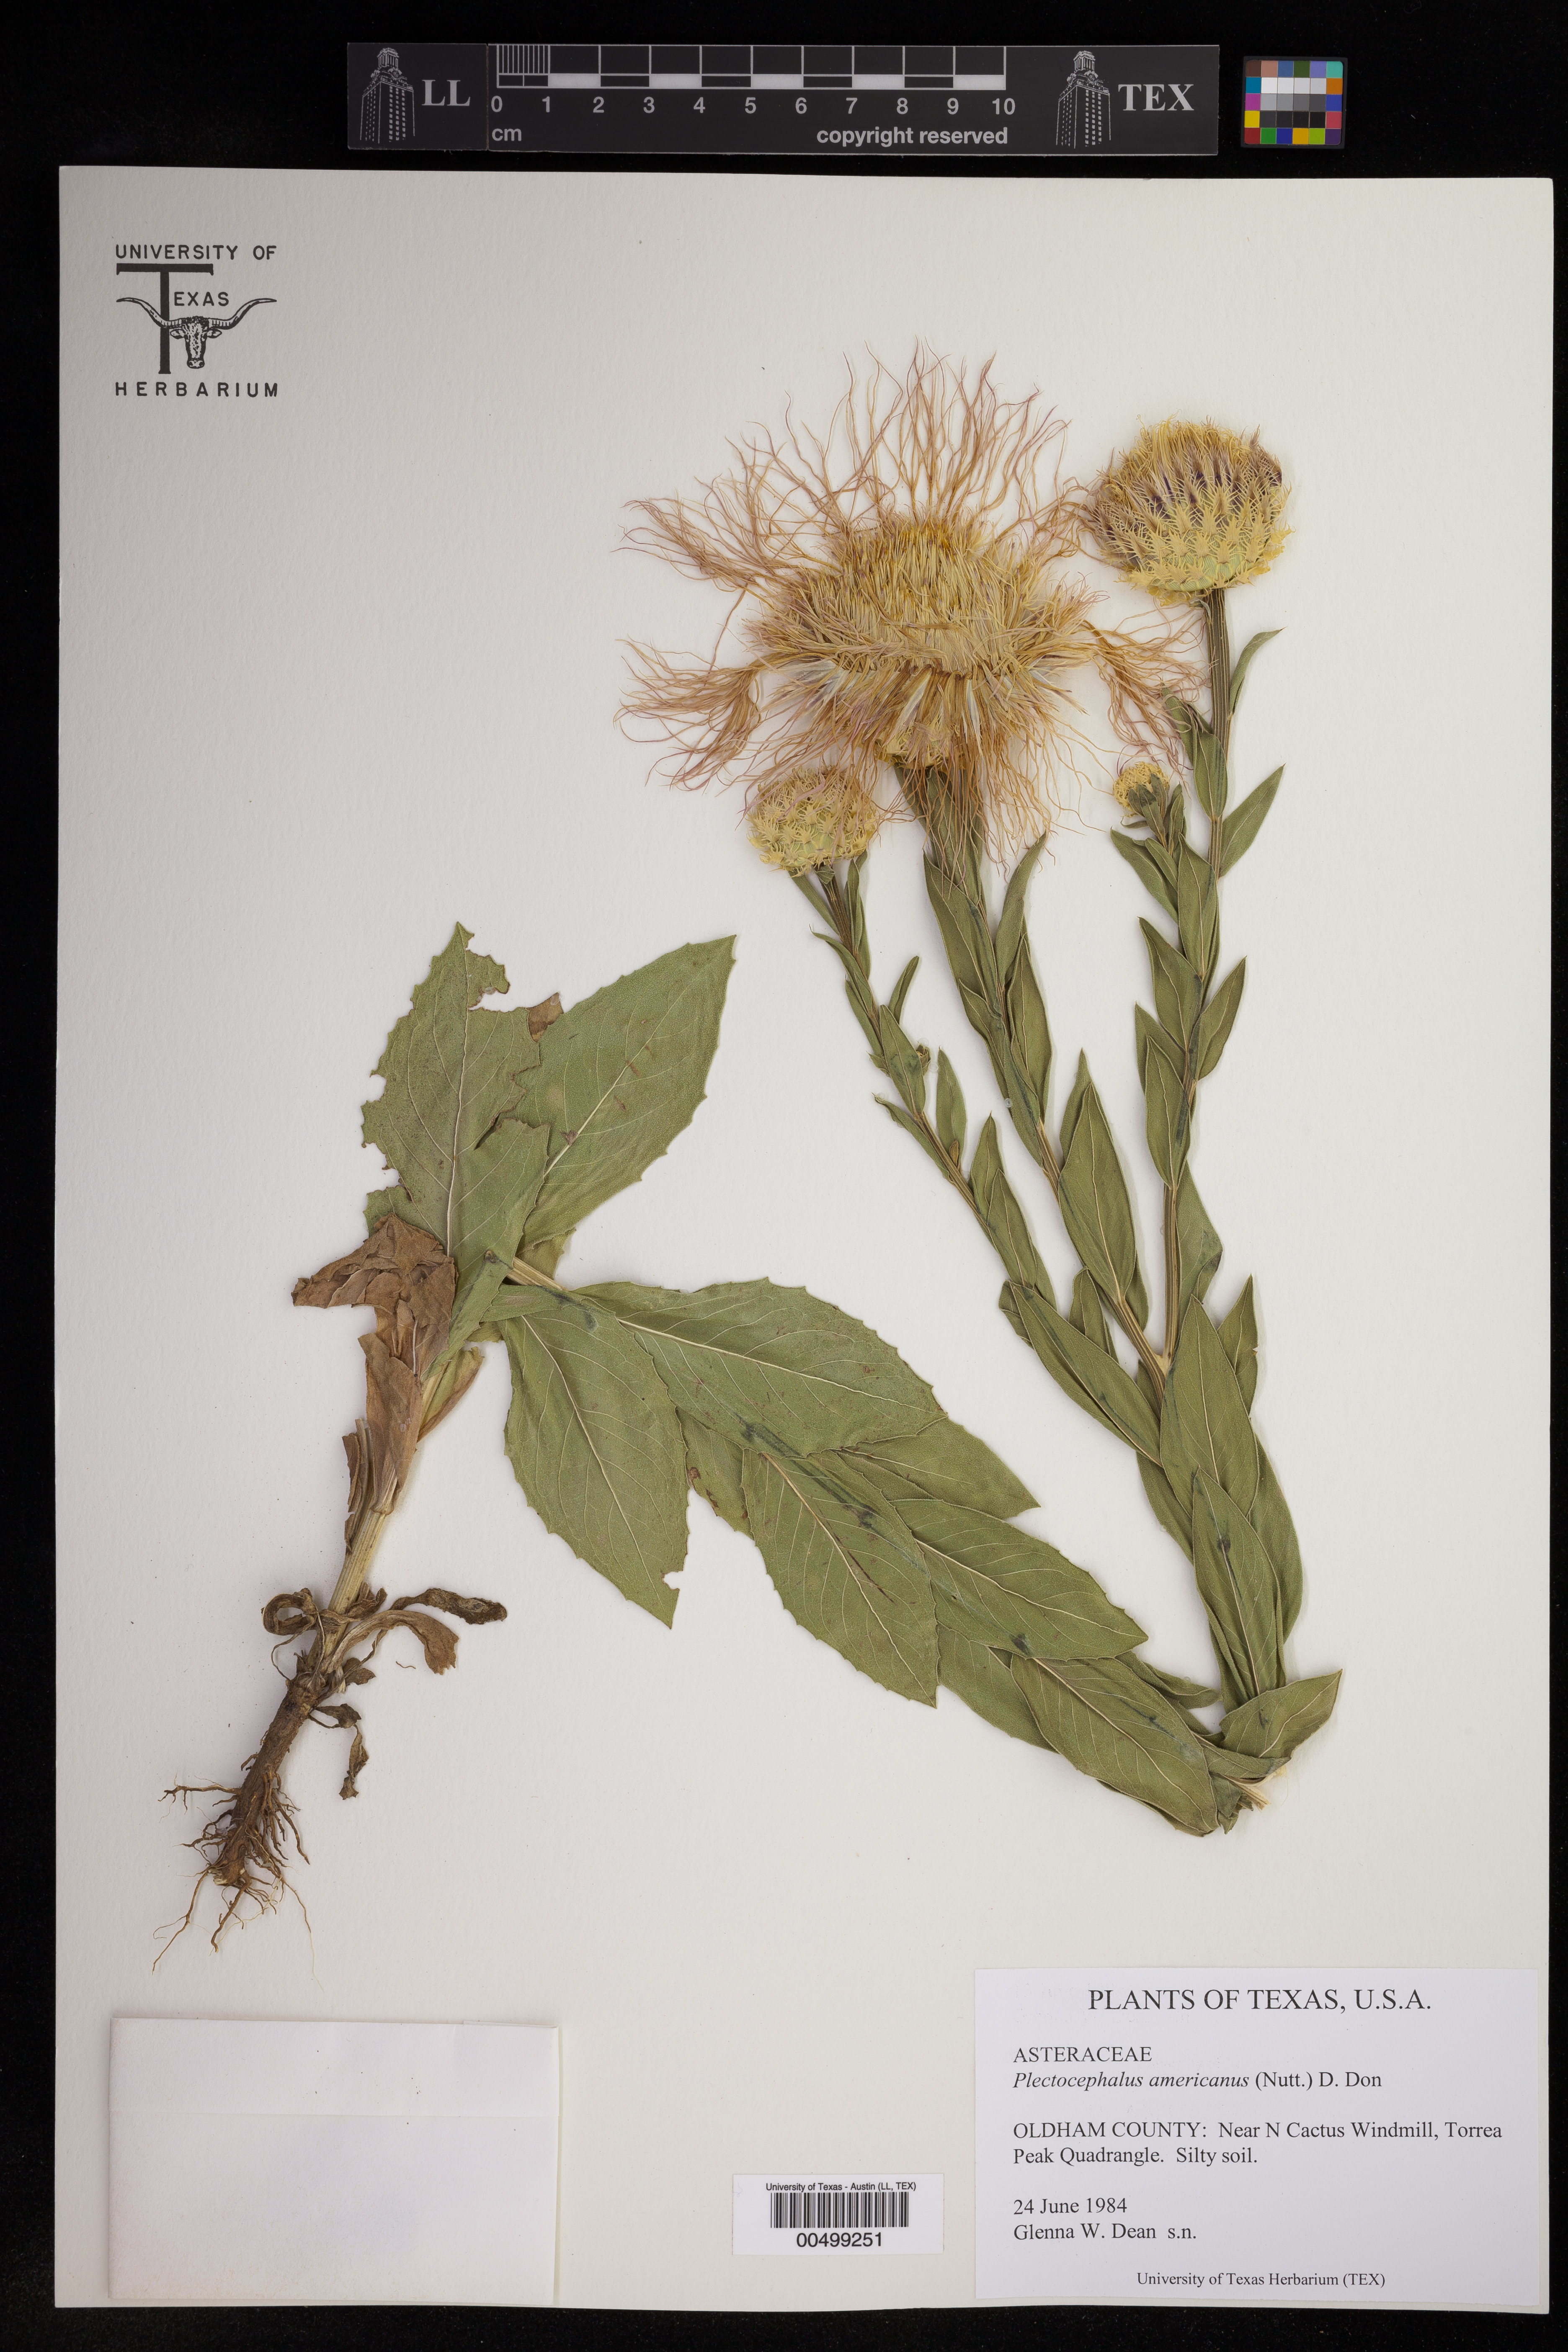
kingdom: Plantae
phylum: Tracheophyta
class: Magnoliopsida
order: Asterales
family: Asteraceae
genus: Plectocephalus
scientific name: Plectocephalus americanus
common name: American basket-flower
